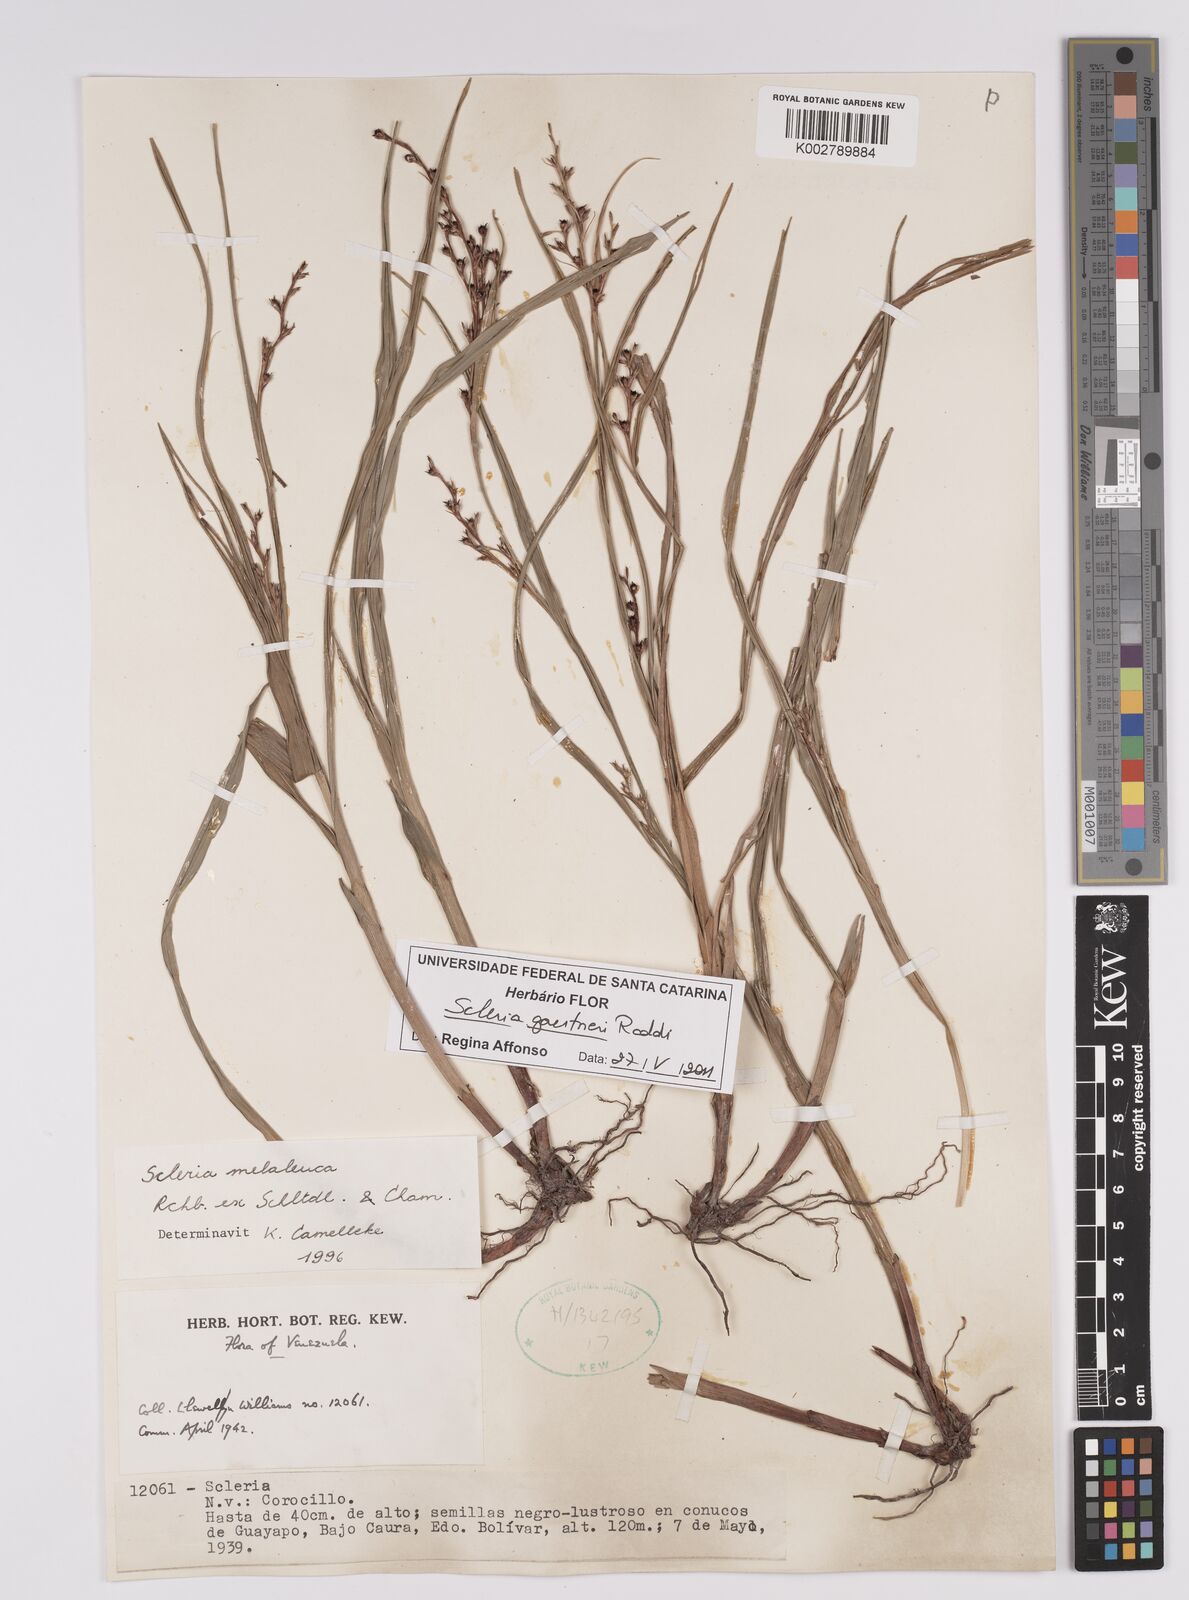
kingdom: Plantae
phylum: Tracheophyta
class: Liliopsida
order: Poales
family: Cyperaceae
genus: Scleria
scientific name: Scleria gaertneri
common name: Cortadera blanca
